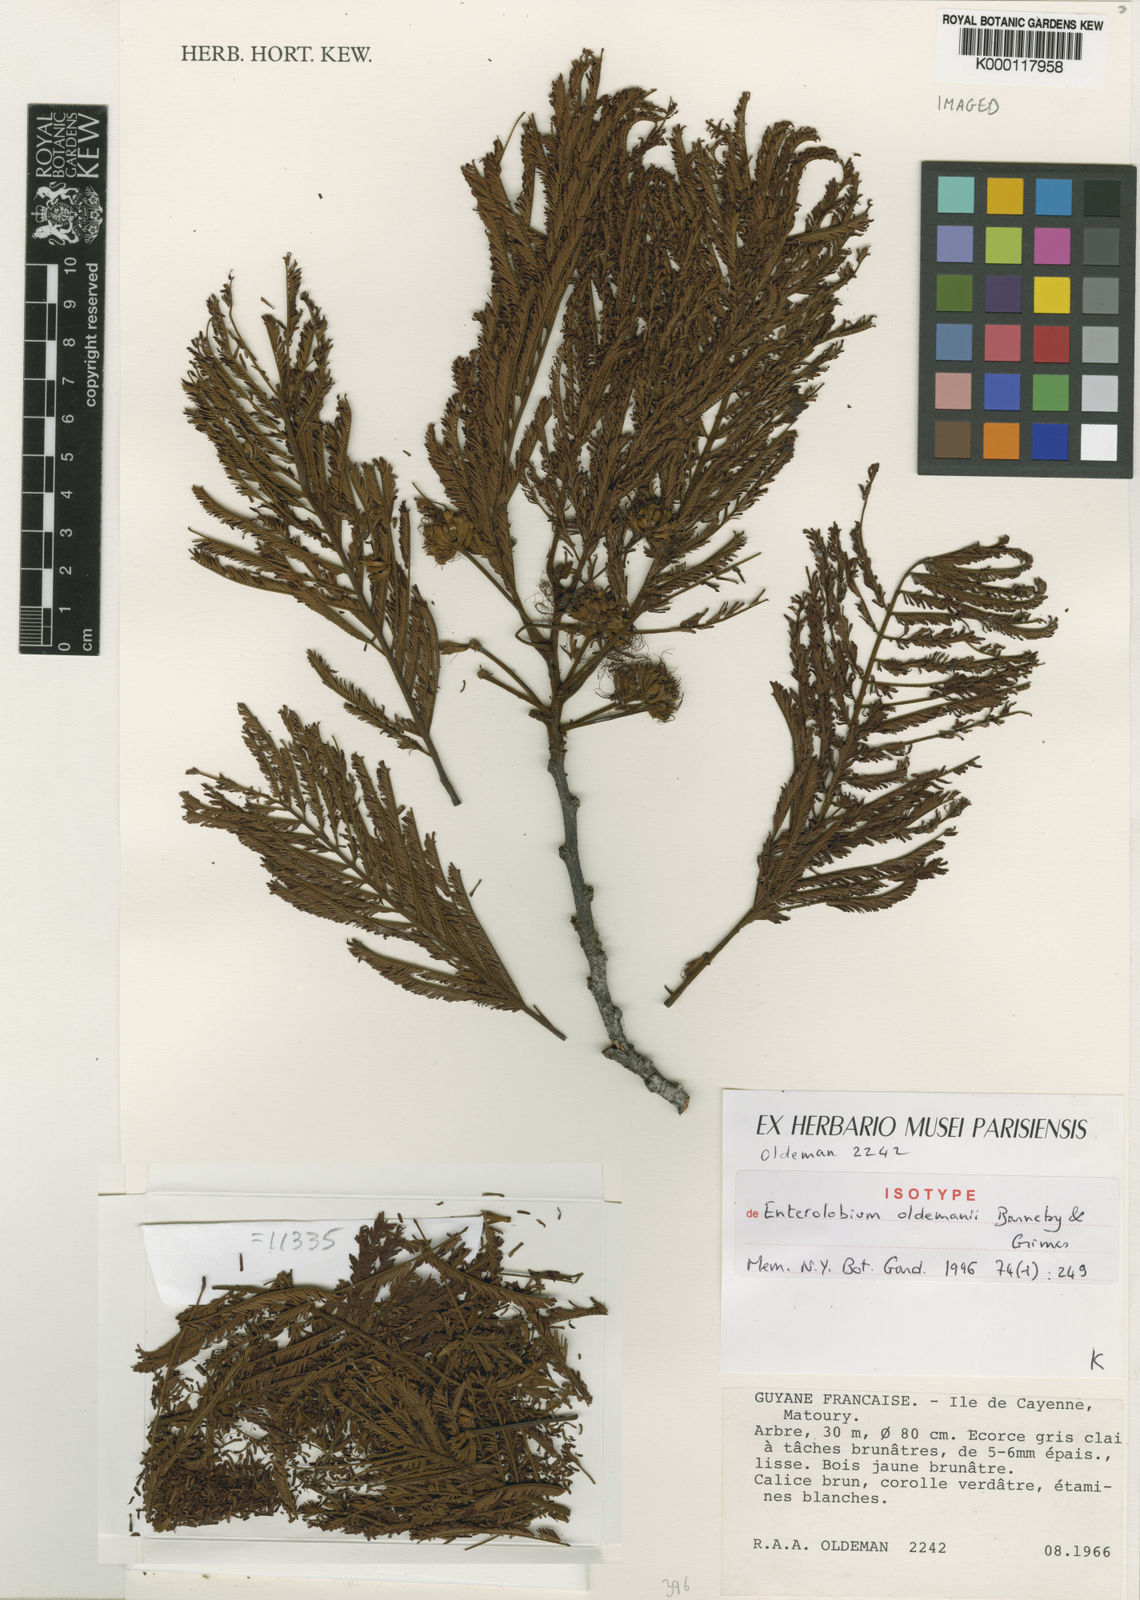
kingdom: Plantae
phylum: Tracheophyta
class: Magnoliopsida
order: Fabales
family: Fabaceae
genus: Enterolobium
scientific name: Enterolobium oldemanii
